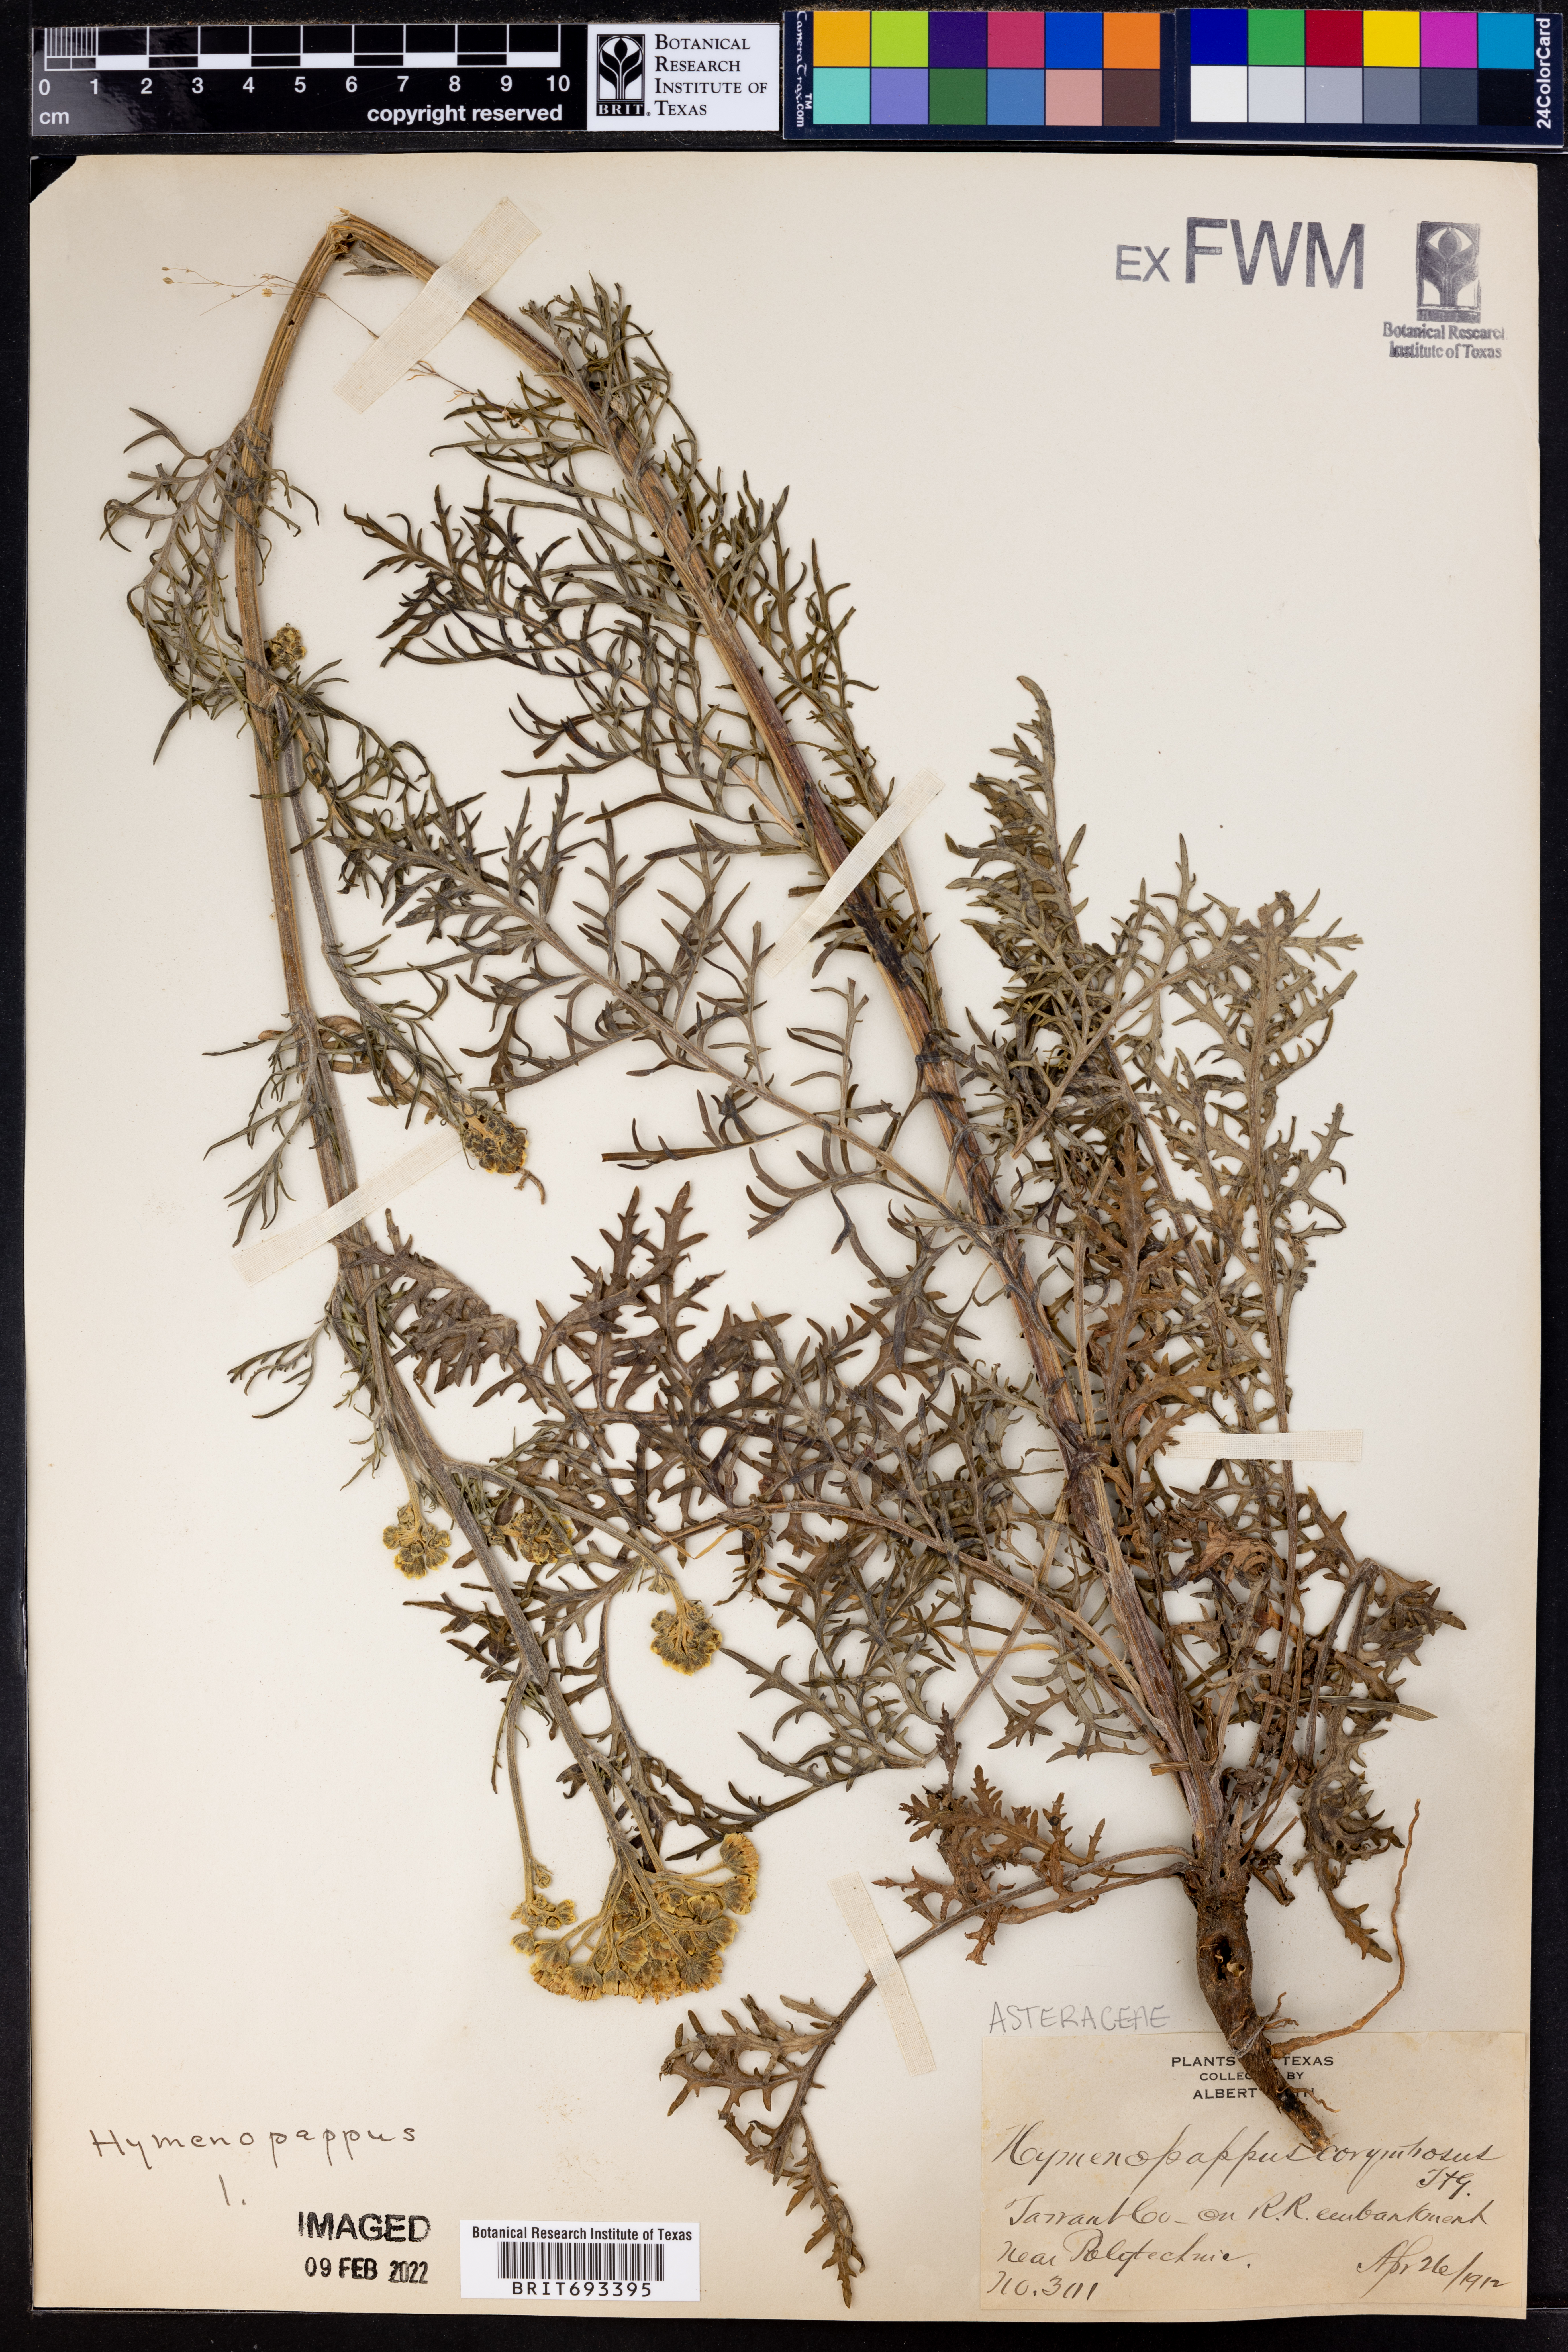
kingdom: Plantae
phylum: Tracheophyta
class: Magnoliopsida
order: Asterales
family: Asteraceae
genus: Hymenopappus
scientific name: Hymenopappus scabiosaeus
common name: Carolina woollywhite
